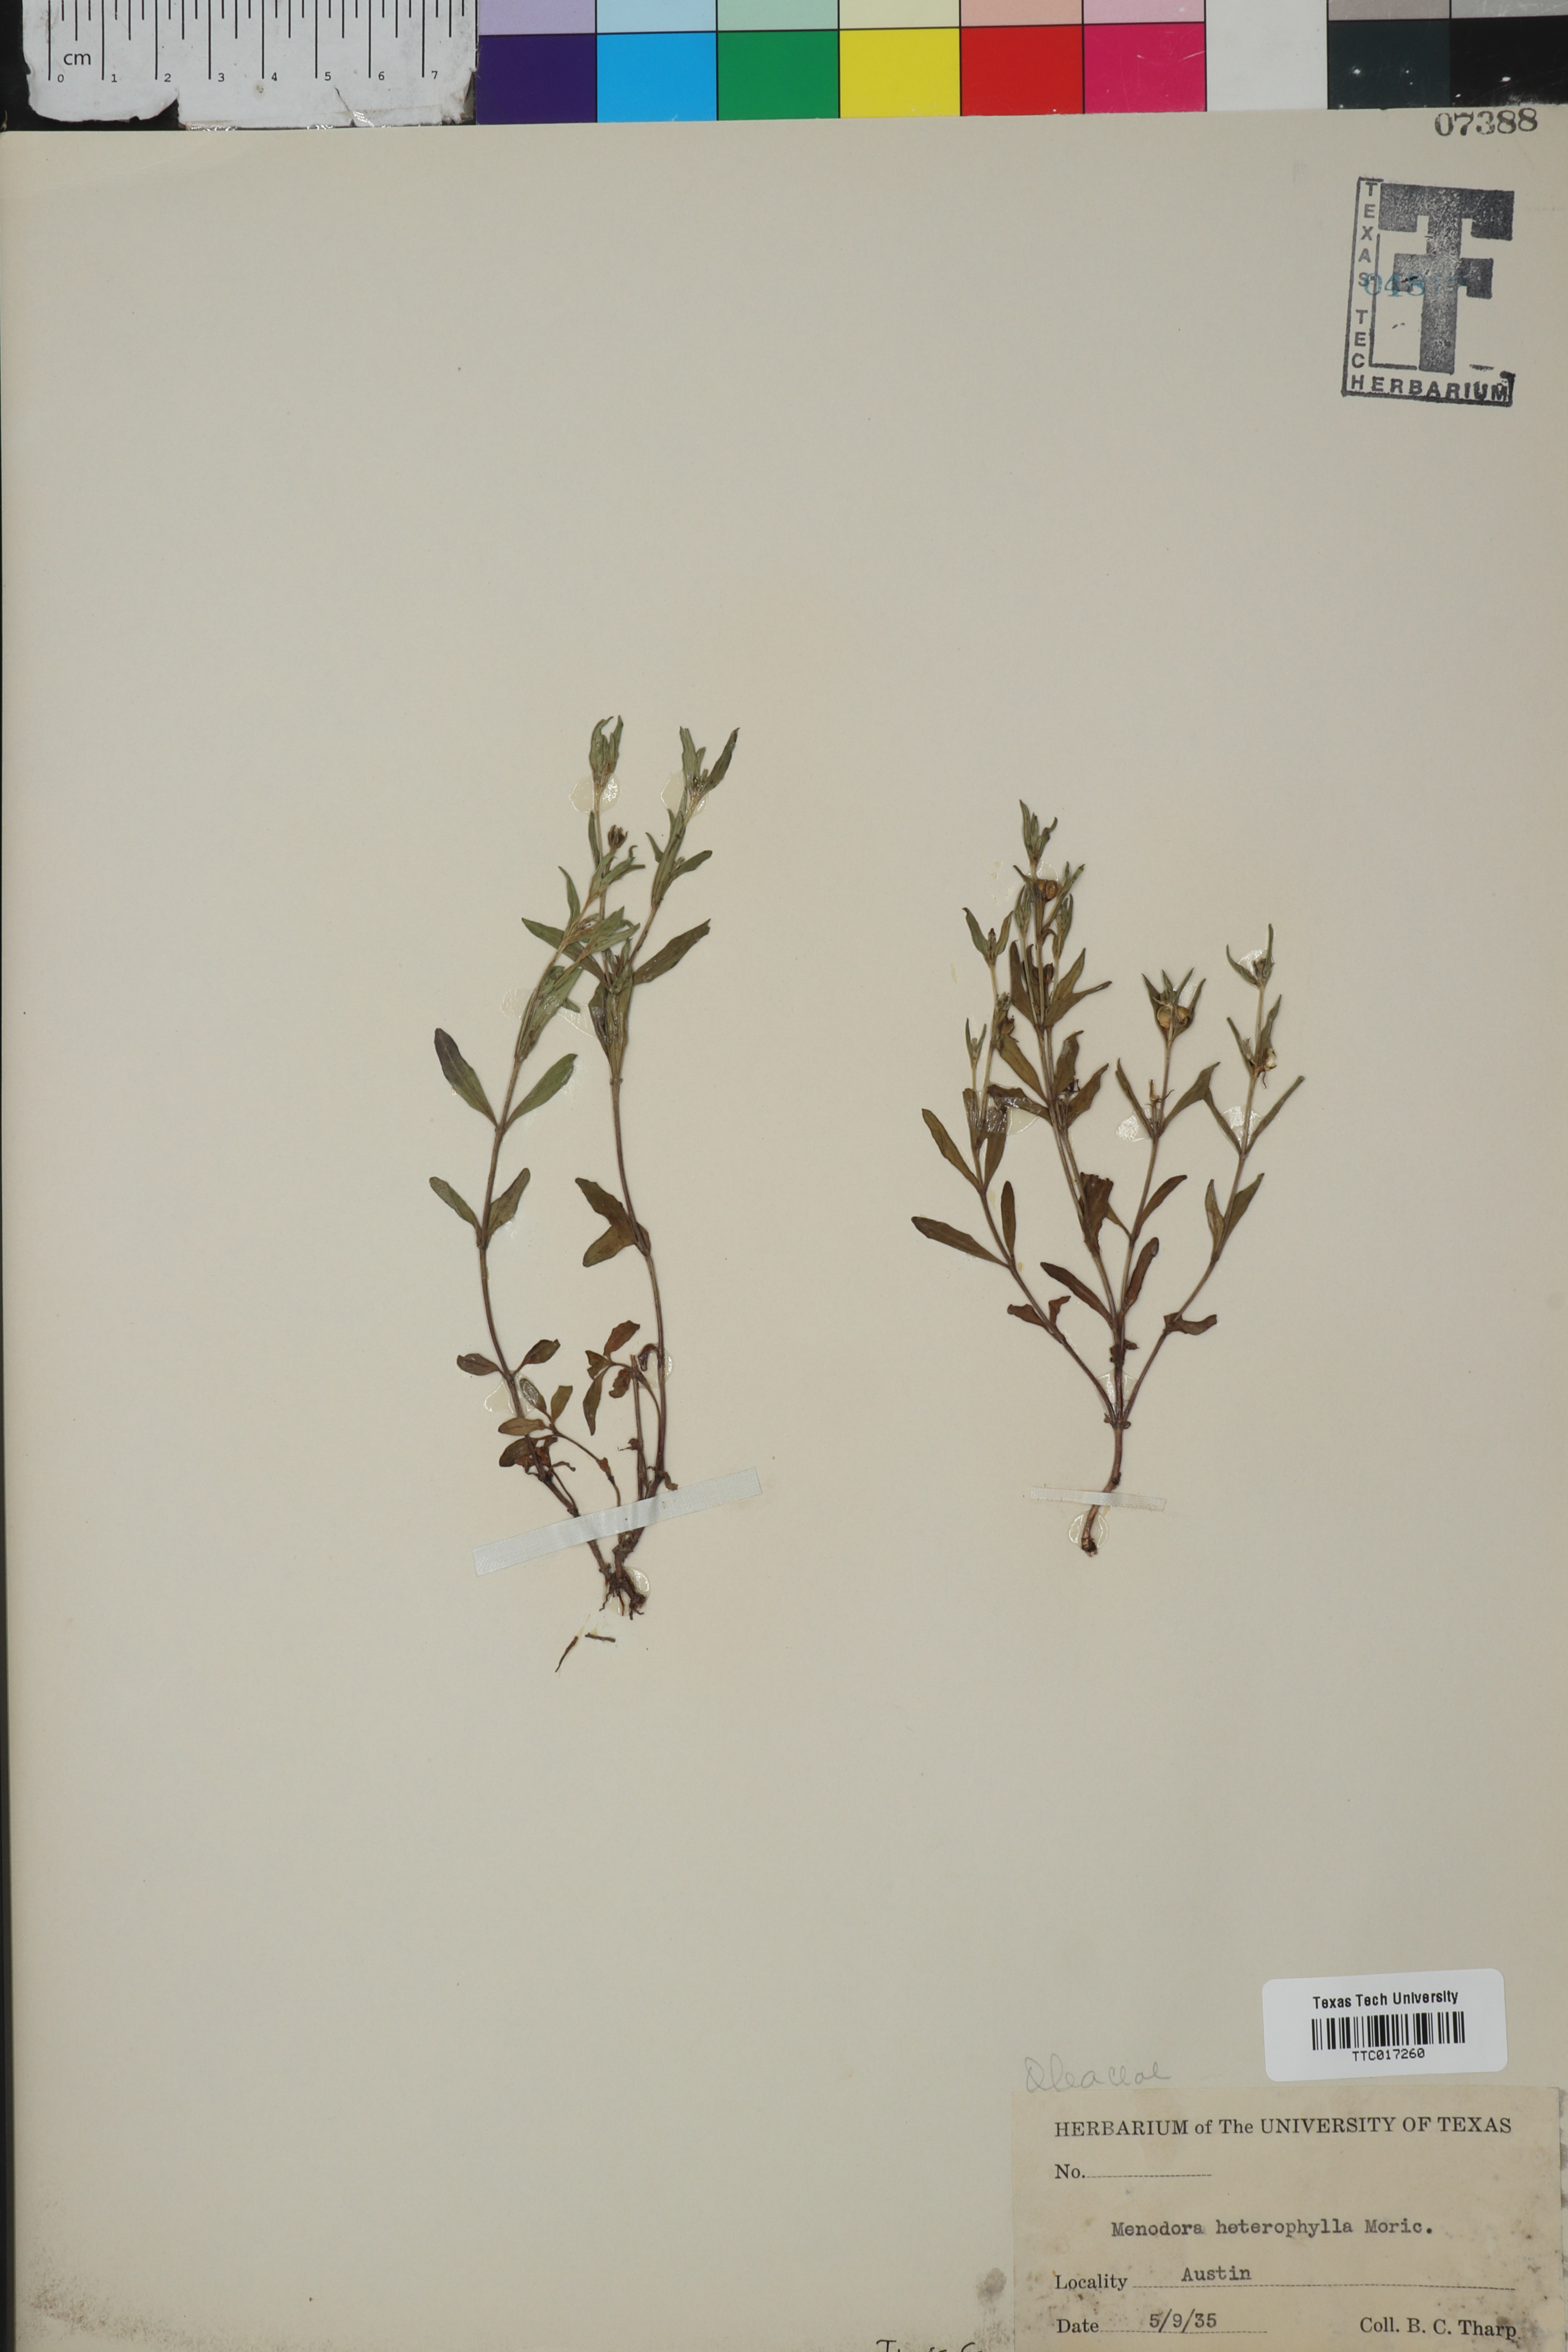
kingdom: Plantae
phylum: Tracheophyta
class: Magnoliopsida
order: Lamiales
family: Oleaceae
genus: Menodora
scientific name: Menodora heterophylla
